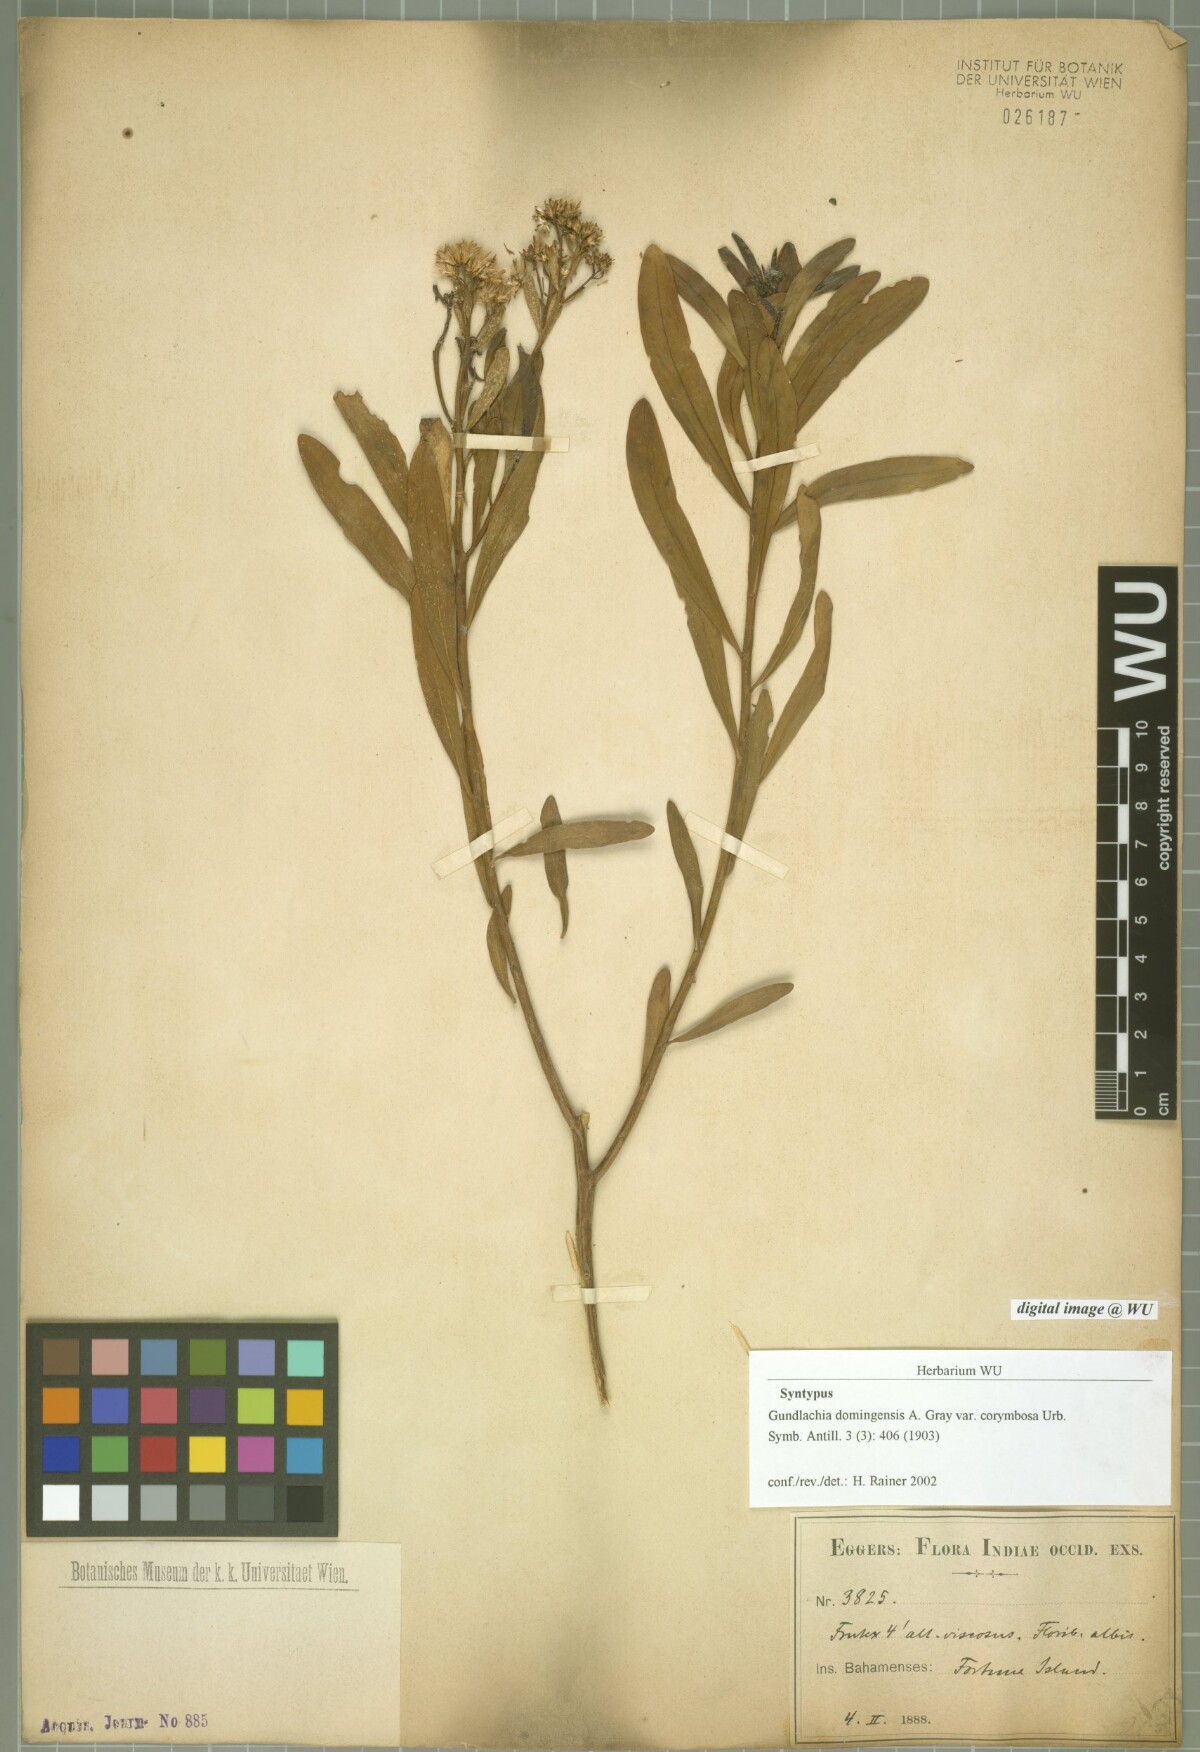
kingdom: Plantae
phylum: Tracheophyta
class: Magnoliopsida
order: Asterales
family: Asteraceae
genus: Gundlachia
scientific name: Gundlachia corymbosa
